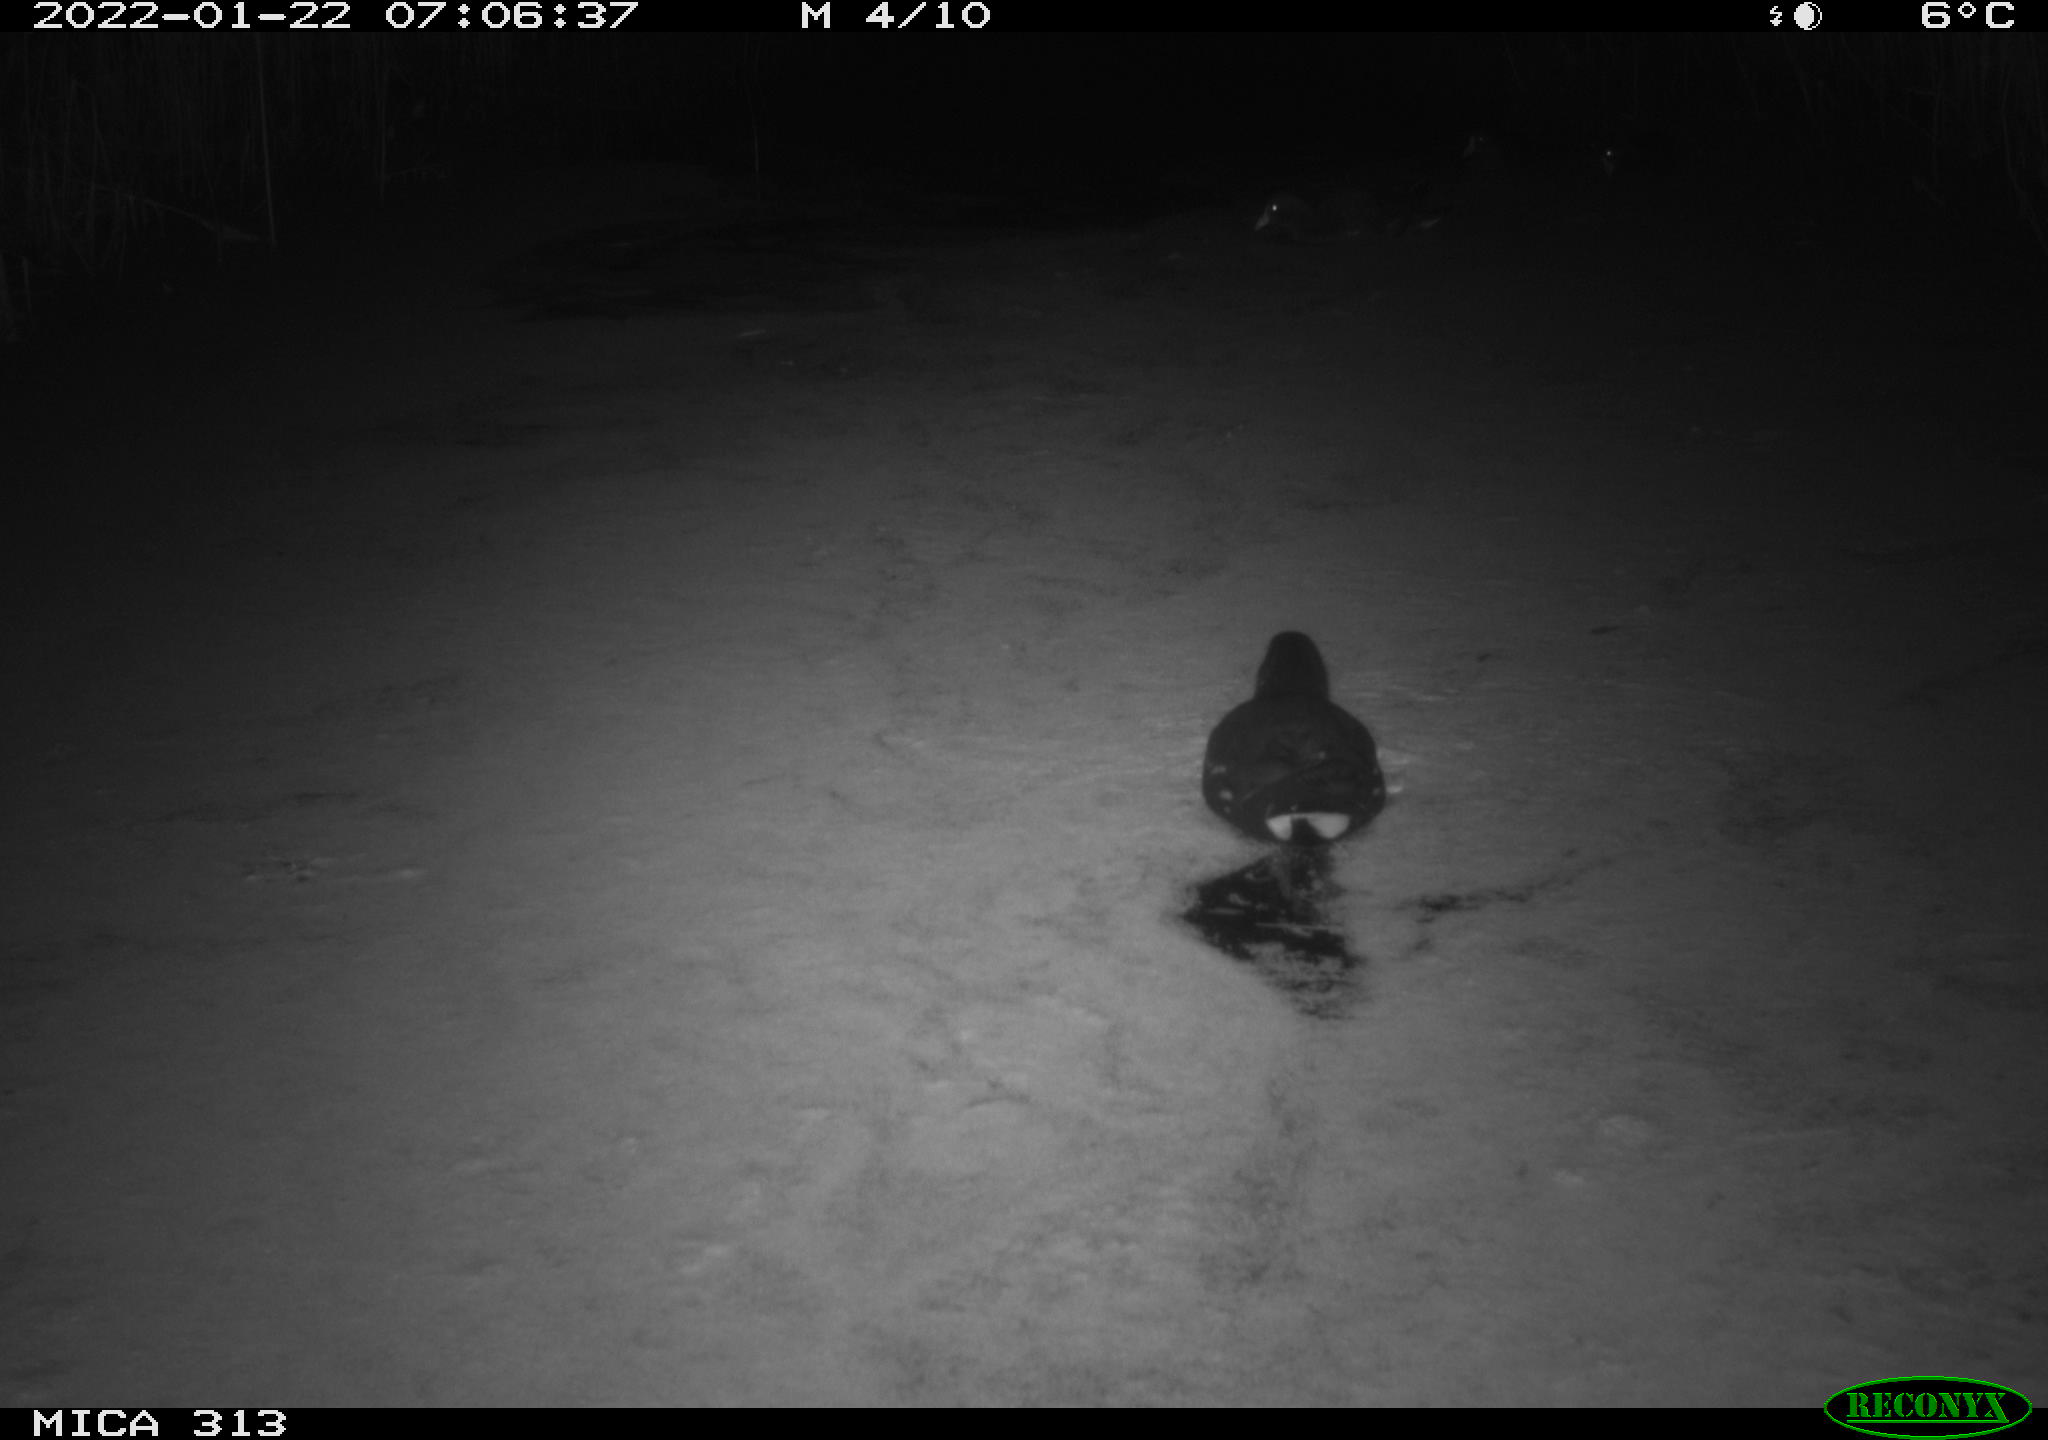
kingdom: Animalia
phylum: Chordata
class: Aves
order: Gruiformes
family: Rallidae
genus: Gallinula
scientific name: Gallinula chloropus
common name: Common moorhen
